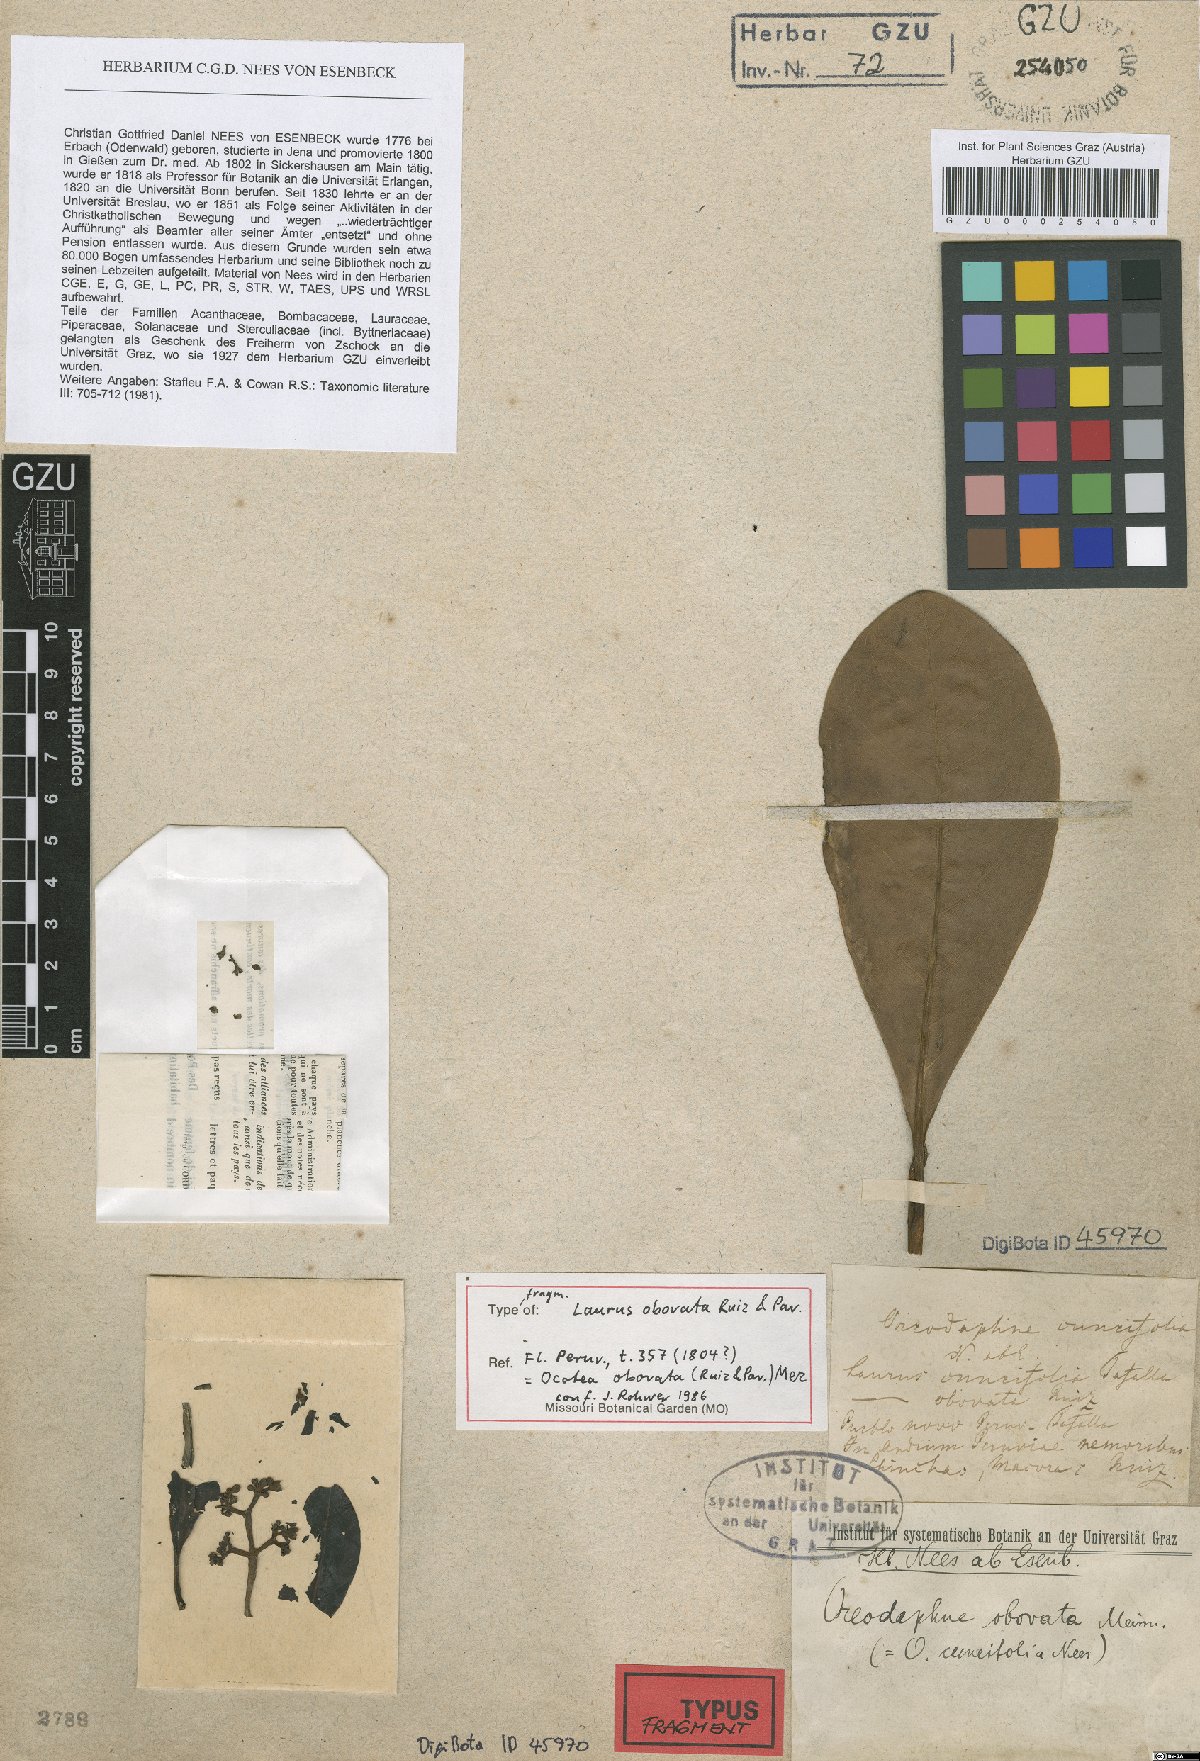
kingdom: Plantae
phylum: Tracheophyta
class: Magnoliopsida
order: Laurales
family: Lauraceae
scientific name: Lauraceae
